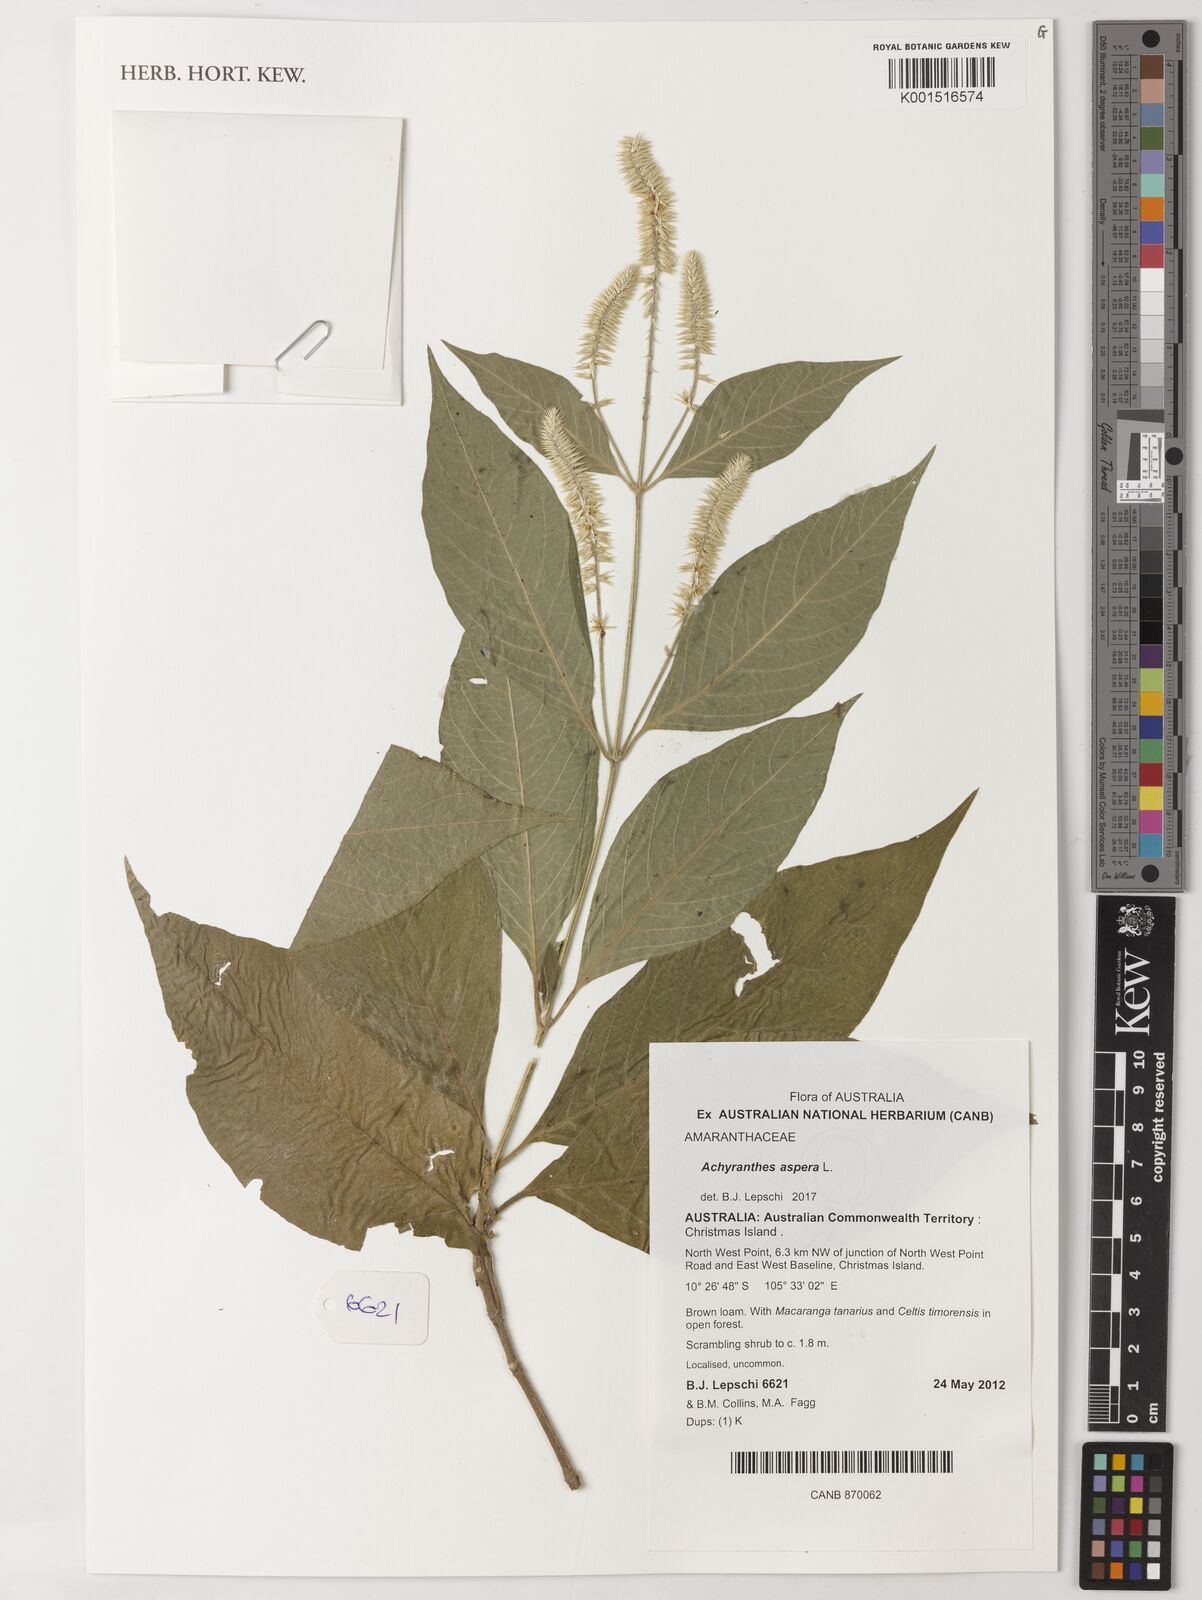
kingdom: Plantae
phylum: Tracheophyta
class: Magnoliopsida
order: Caryophyllales
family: Amaranthaceae
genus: Achyranthes
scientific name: Achyranthes aspera
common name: Devil's horsewhip
